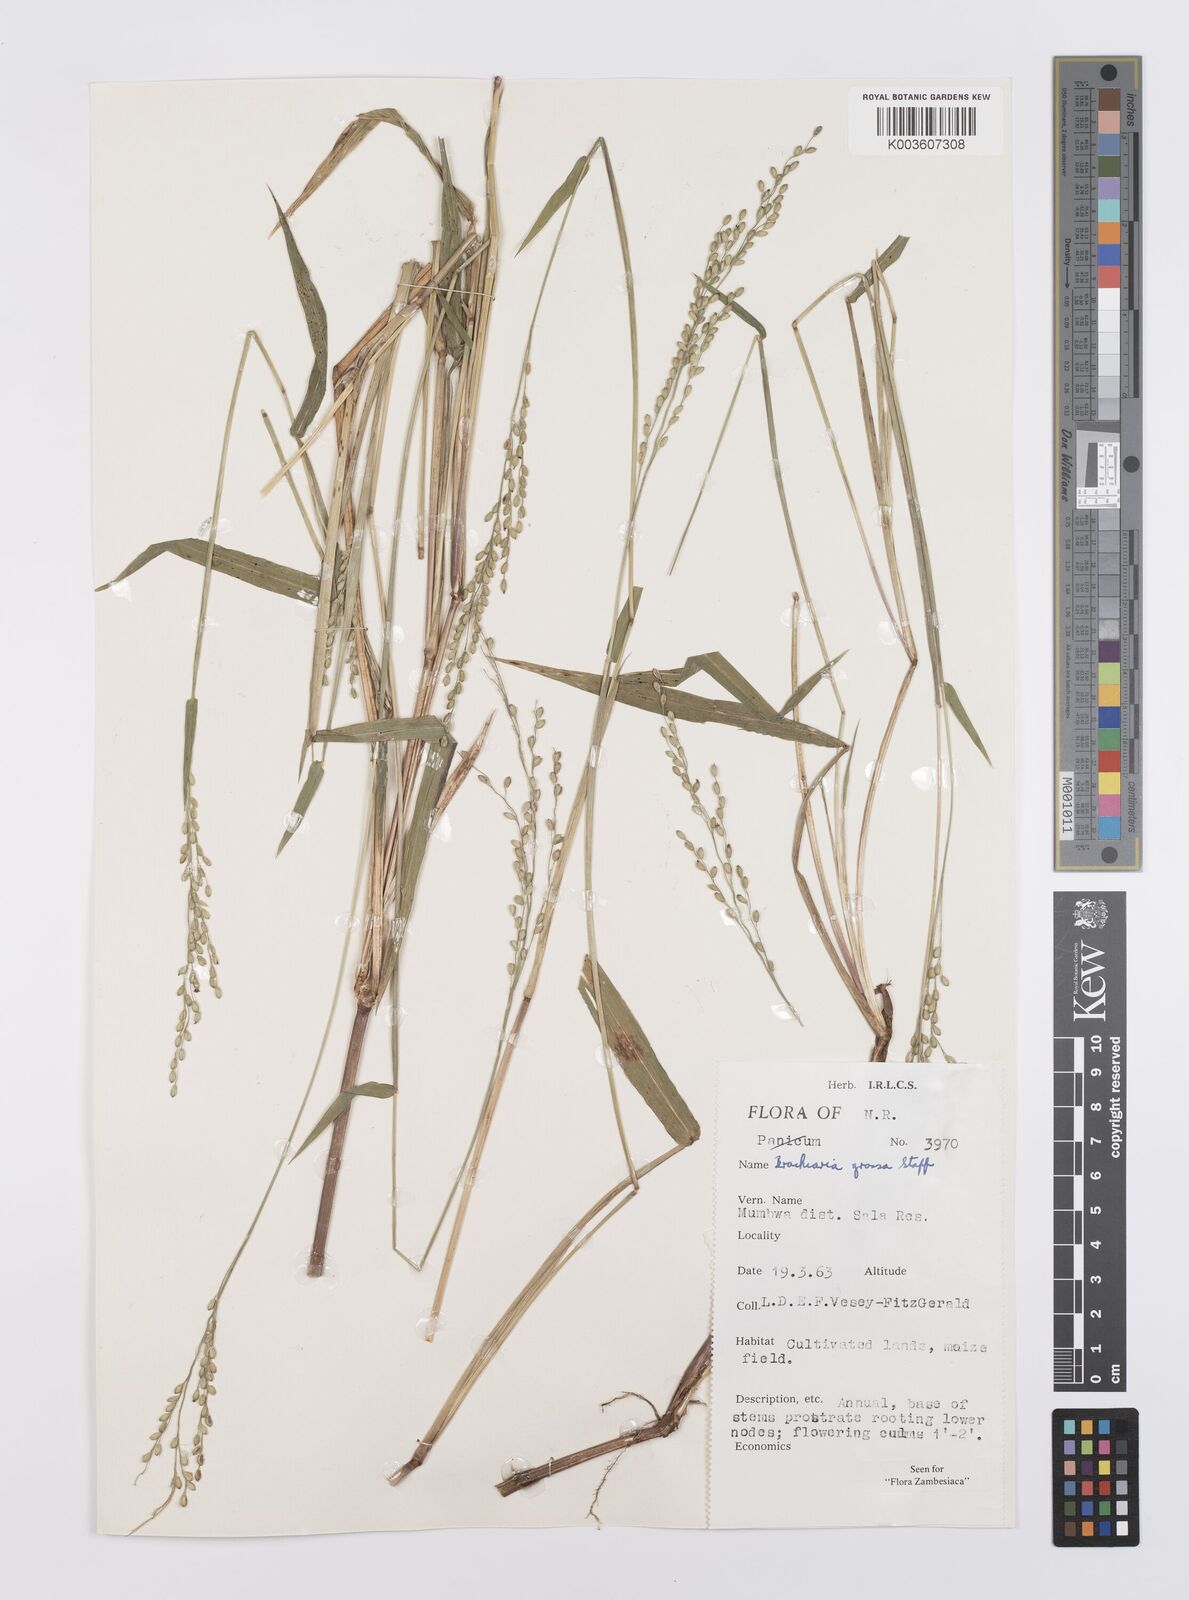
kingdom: Plantae
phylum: Tracheophyta
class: Liliopsida
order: Poales
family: Poaceae
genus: Urochloa
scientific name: Urochloa Brachiaria grossa
